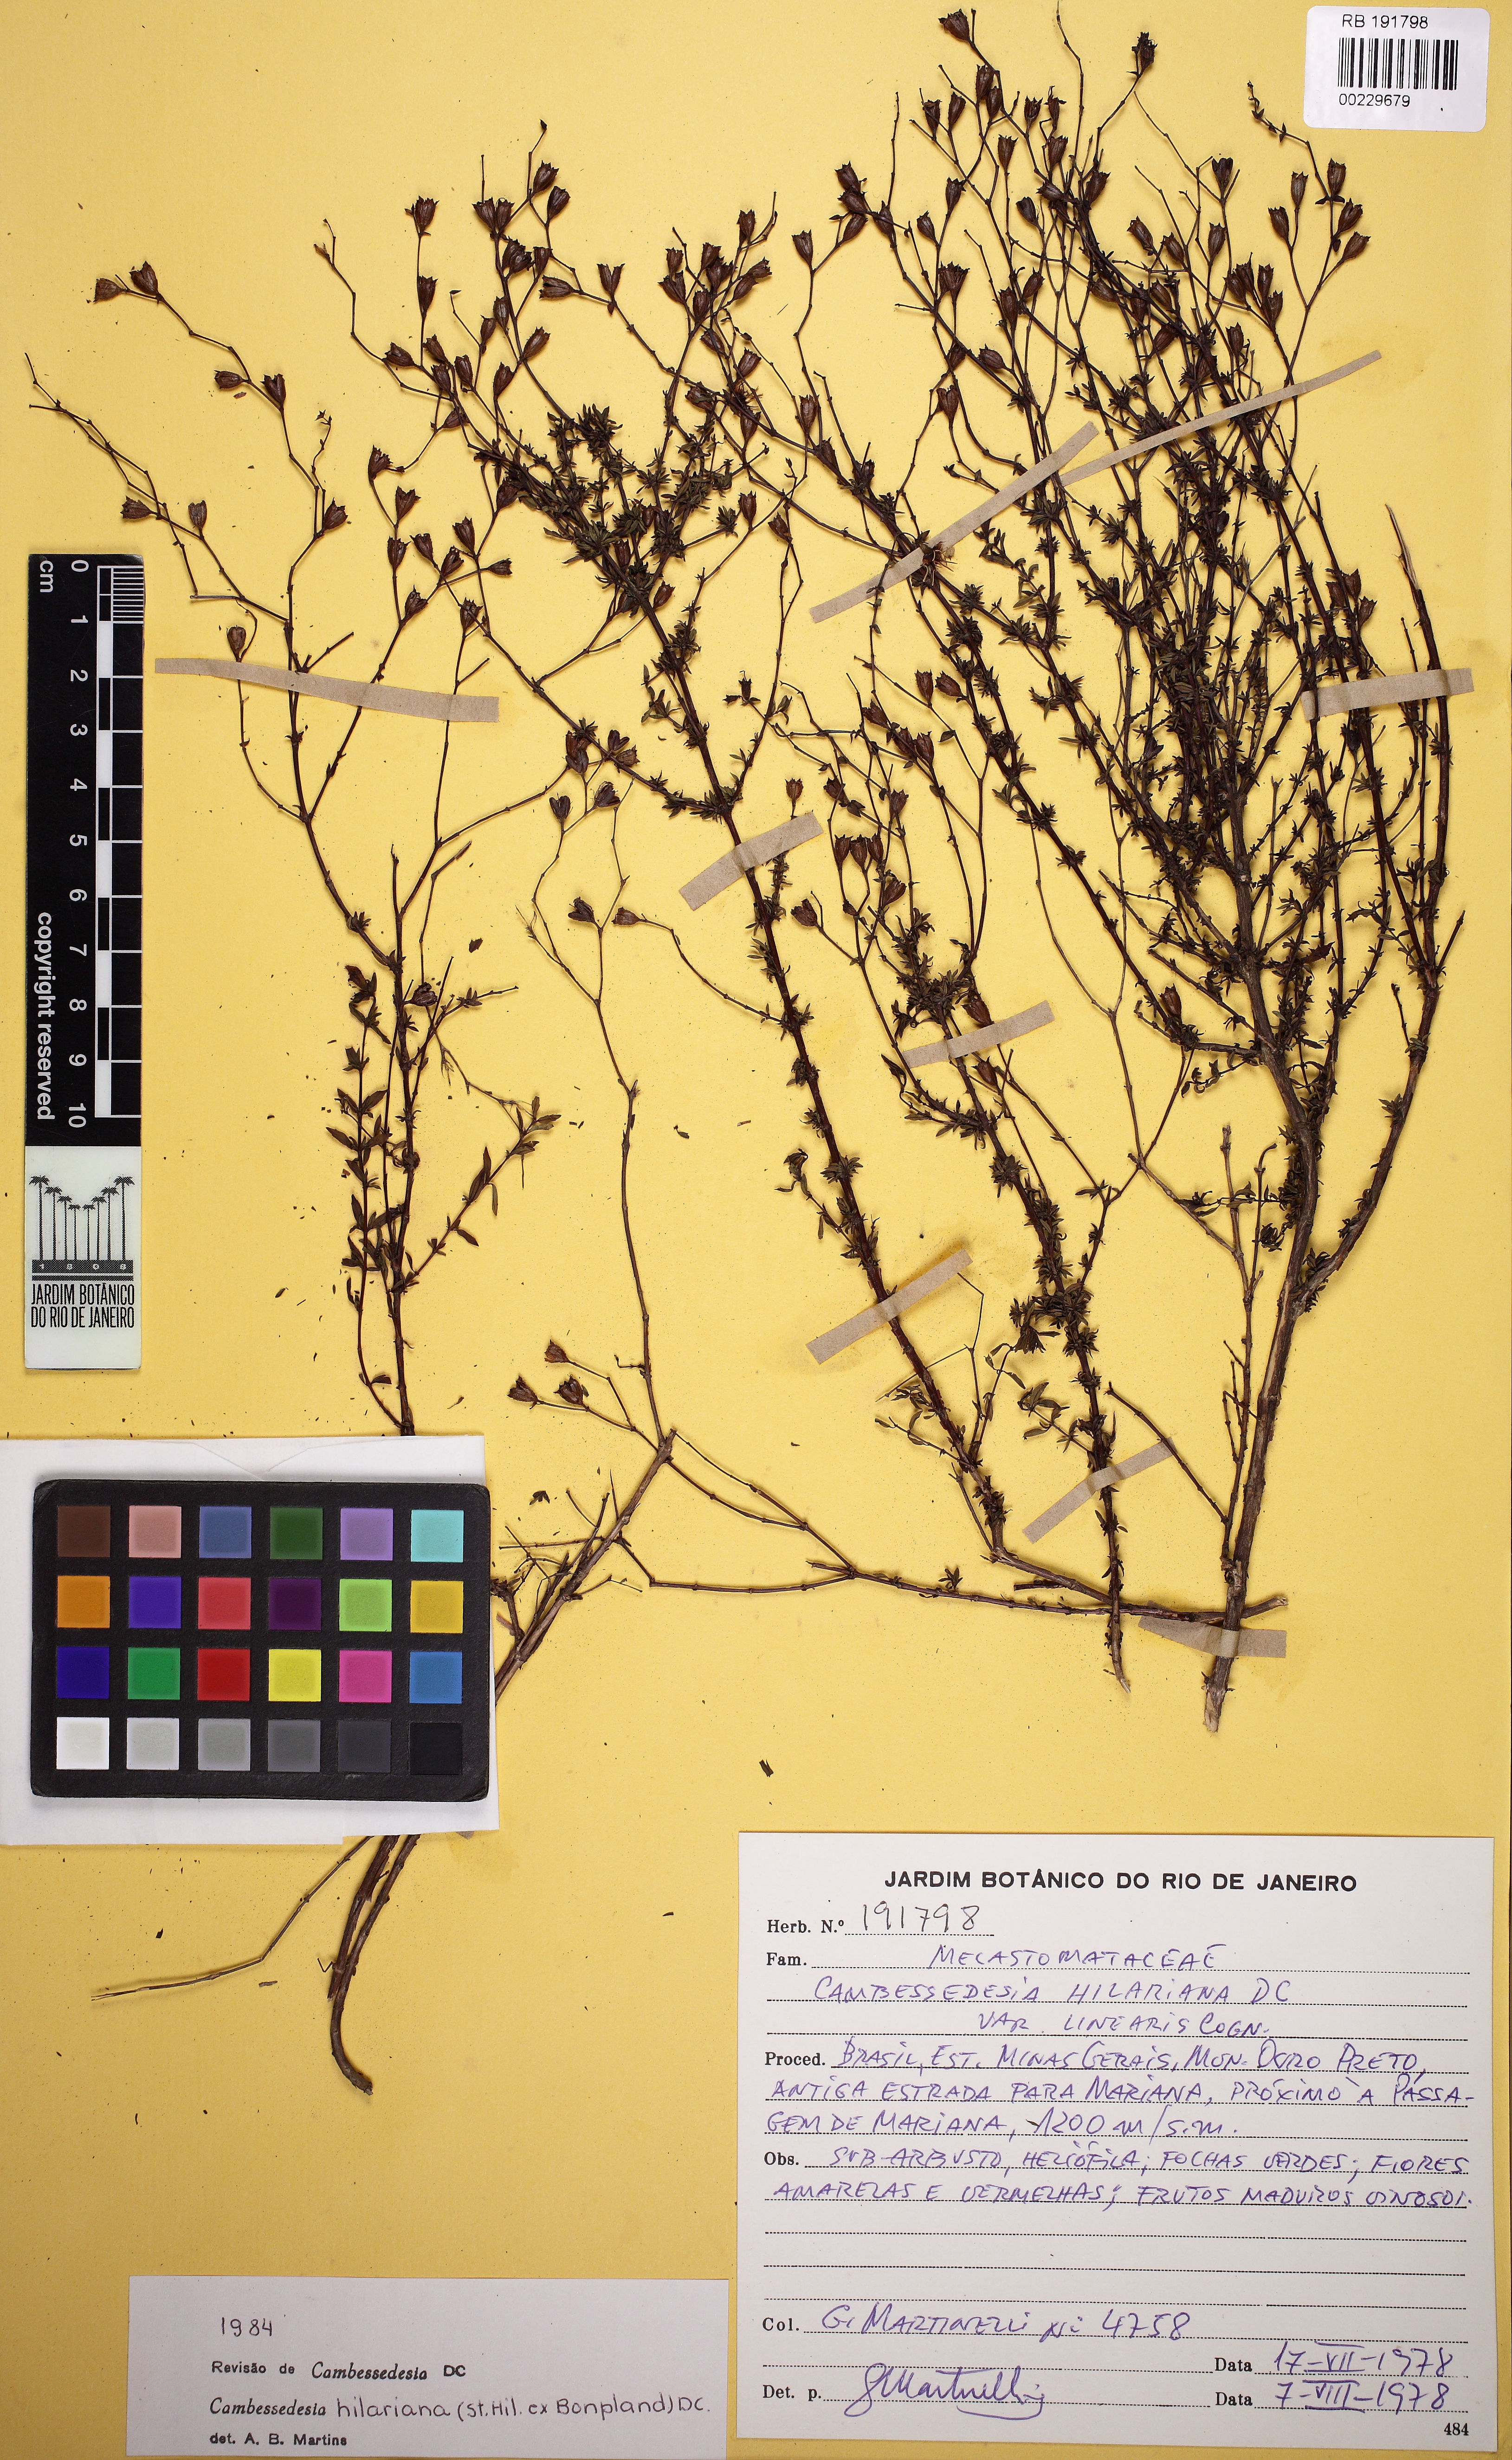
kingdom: Plantae
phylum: Tracheophyta
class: Magnoliopsida
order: Myrtales
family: Melastomataceae
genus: Cambessedesia
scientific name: Cambessedesia hilariana
